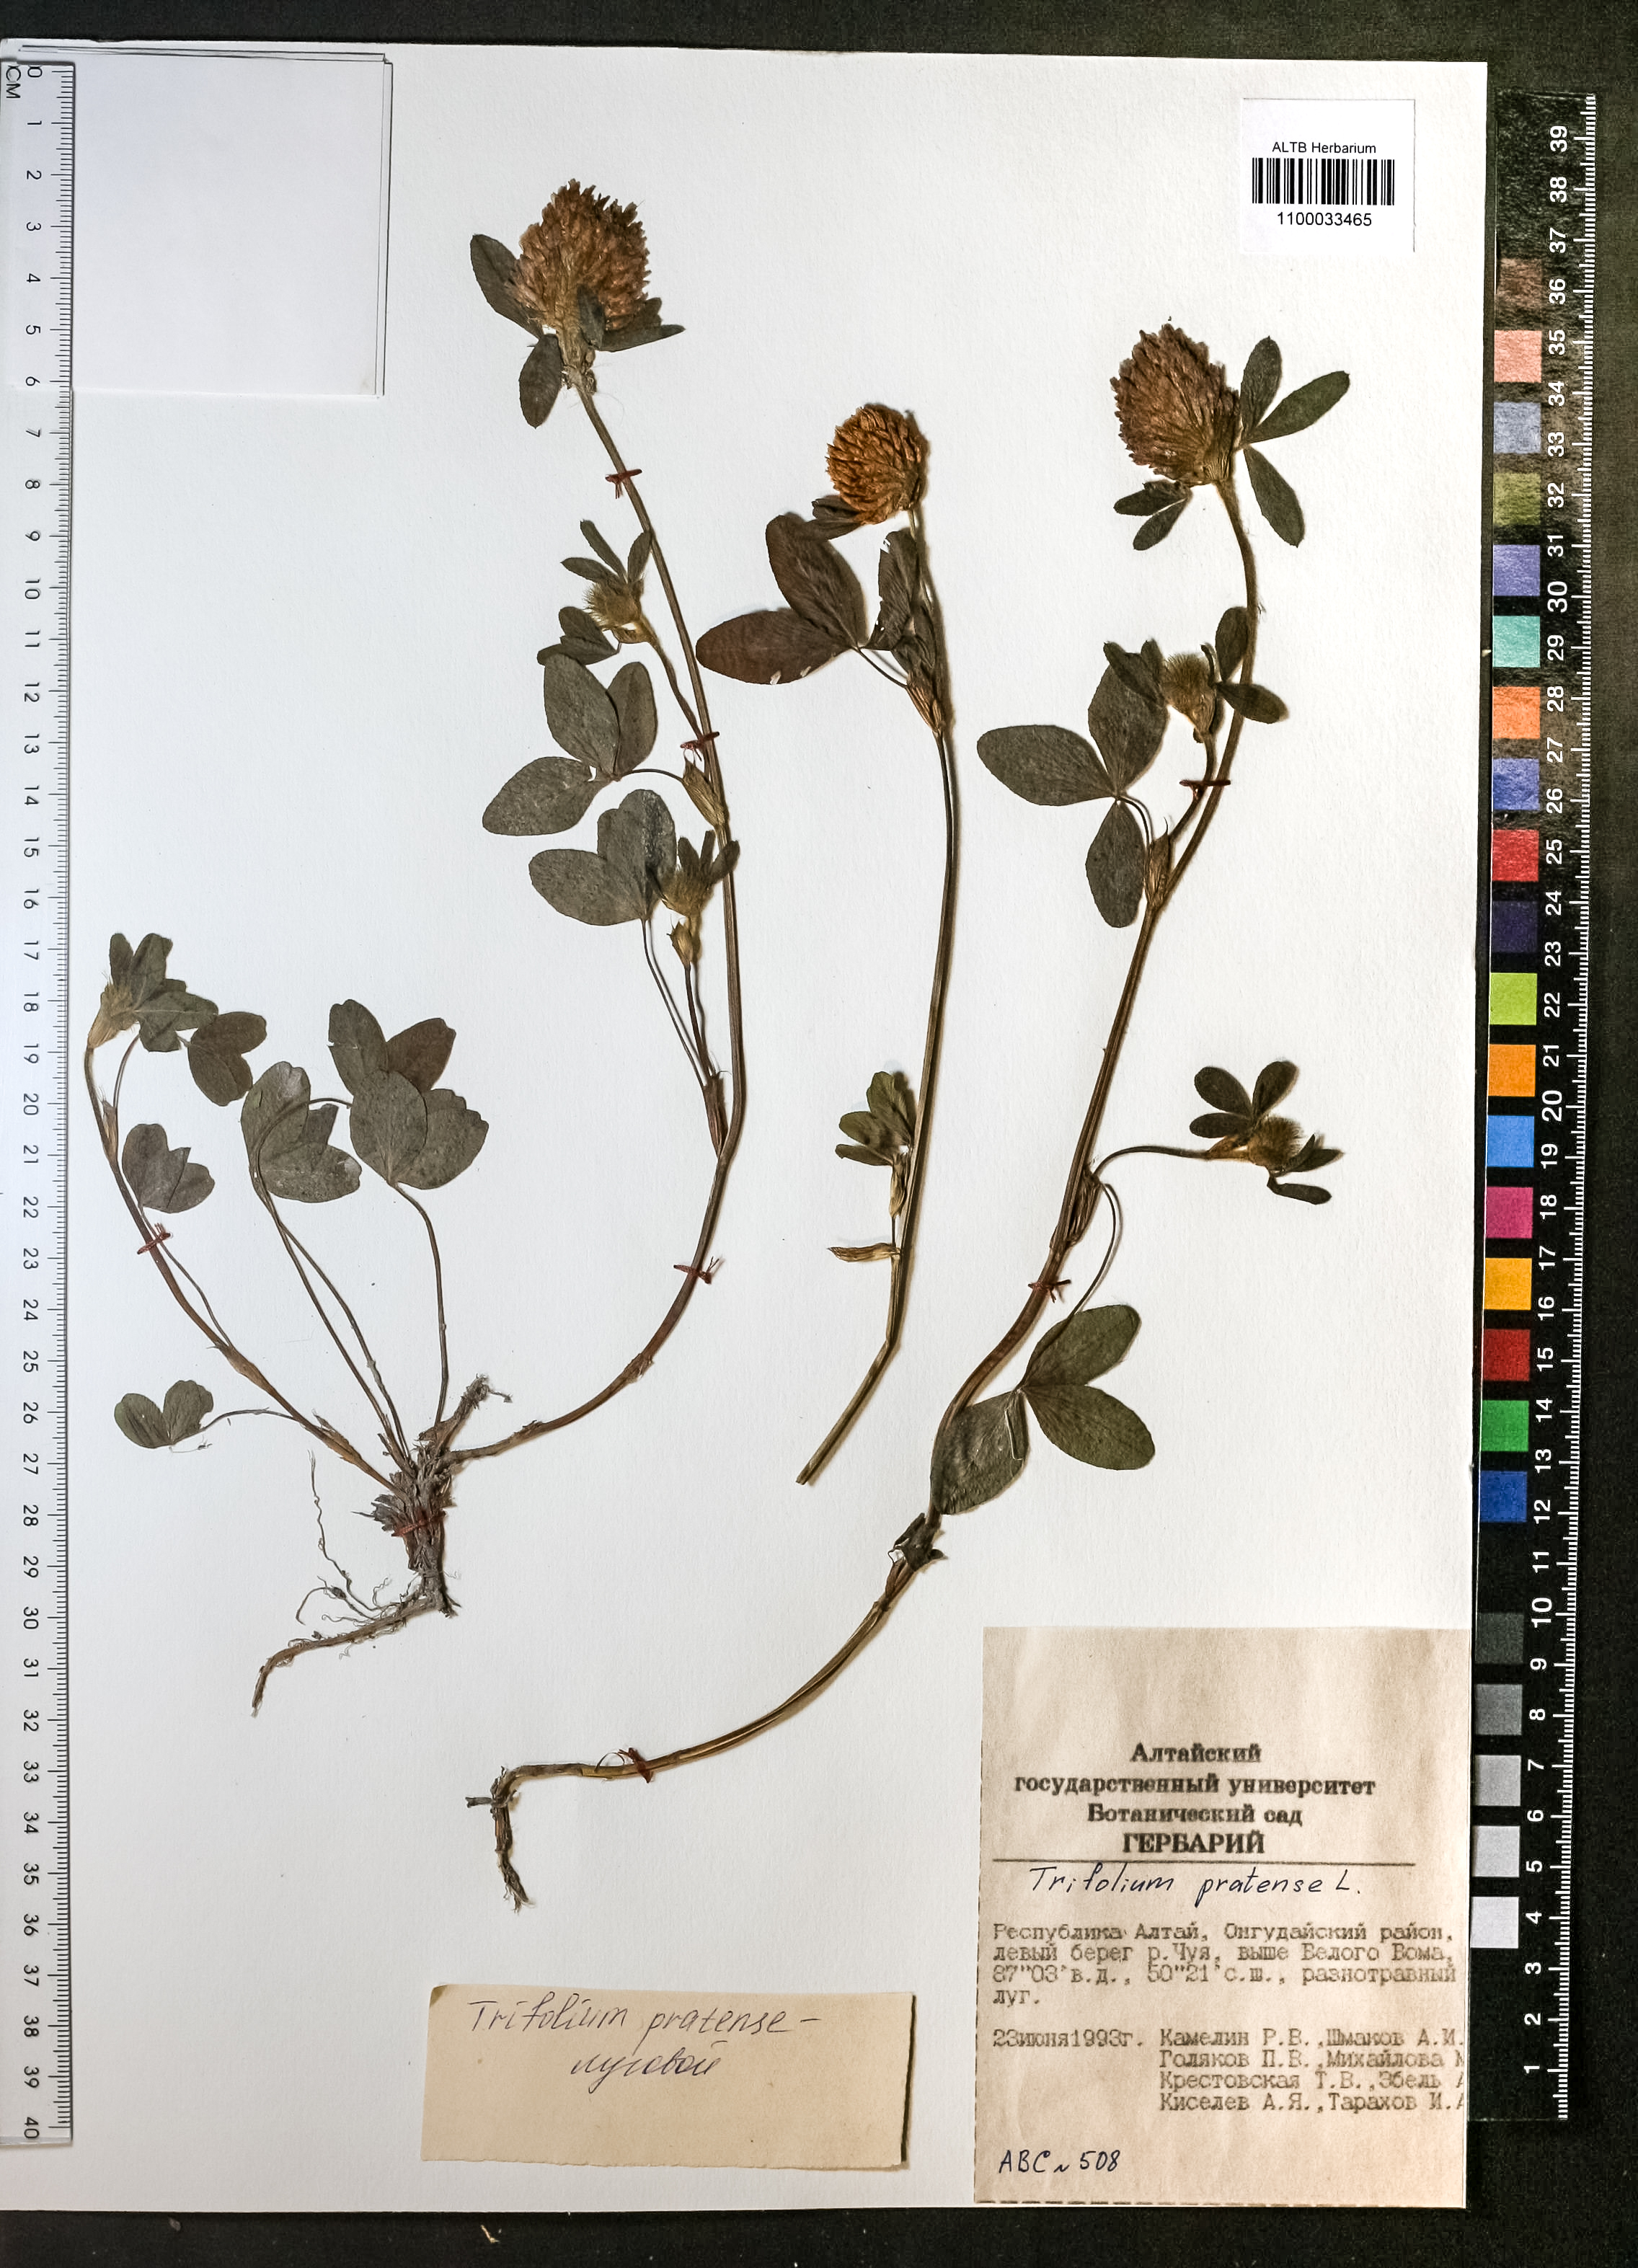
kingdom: Plantae
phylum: Tracheophyta
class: Magnoliopsida
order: Fabales
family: Fabaceae
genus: Trifolium
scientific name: Trifolium pratense
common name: Red clover
